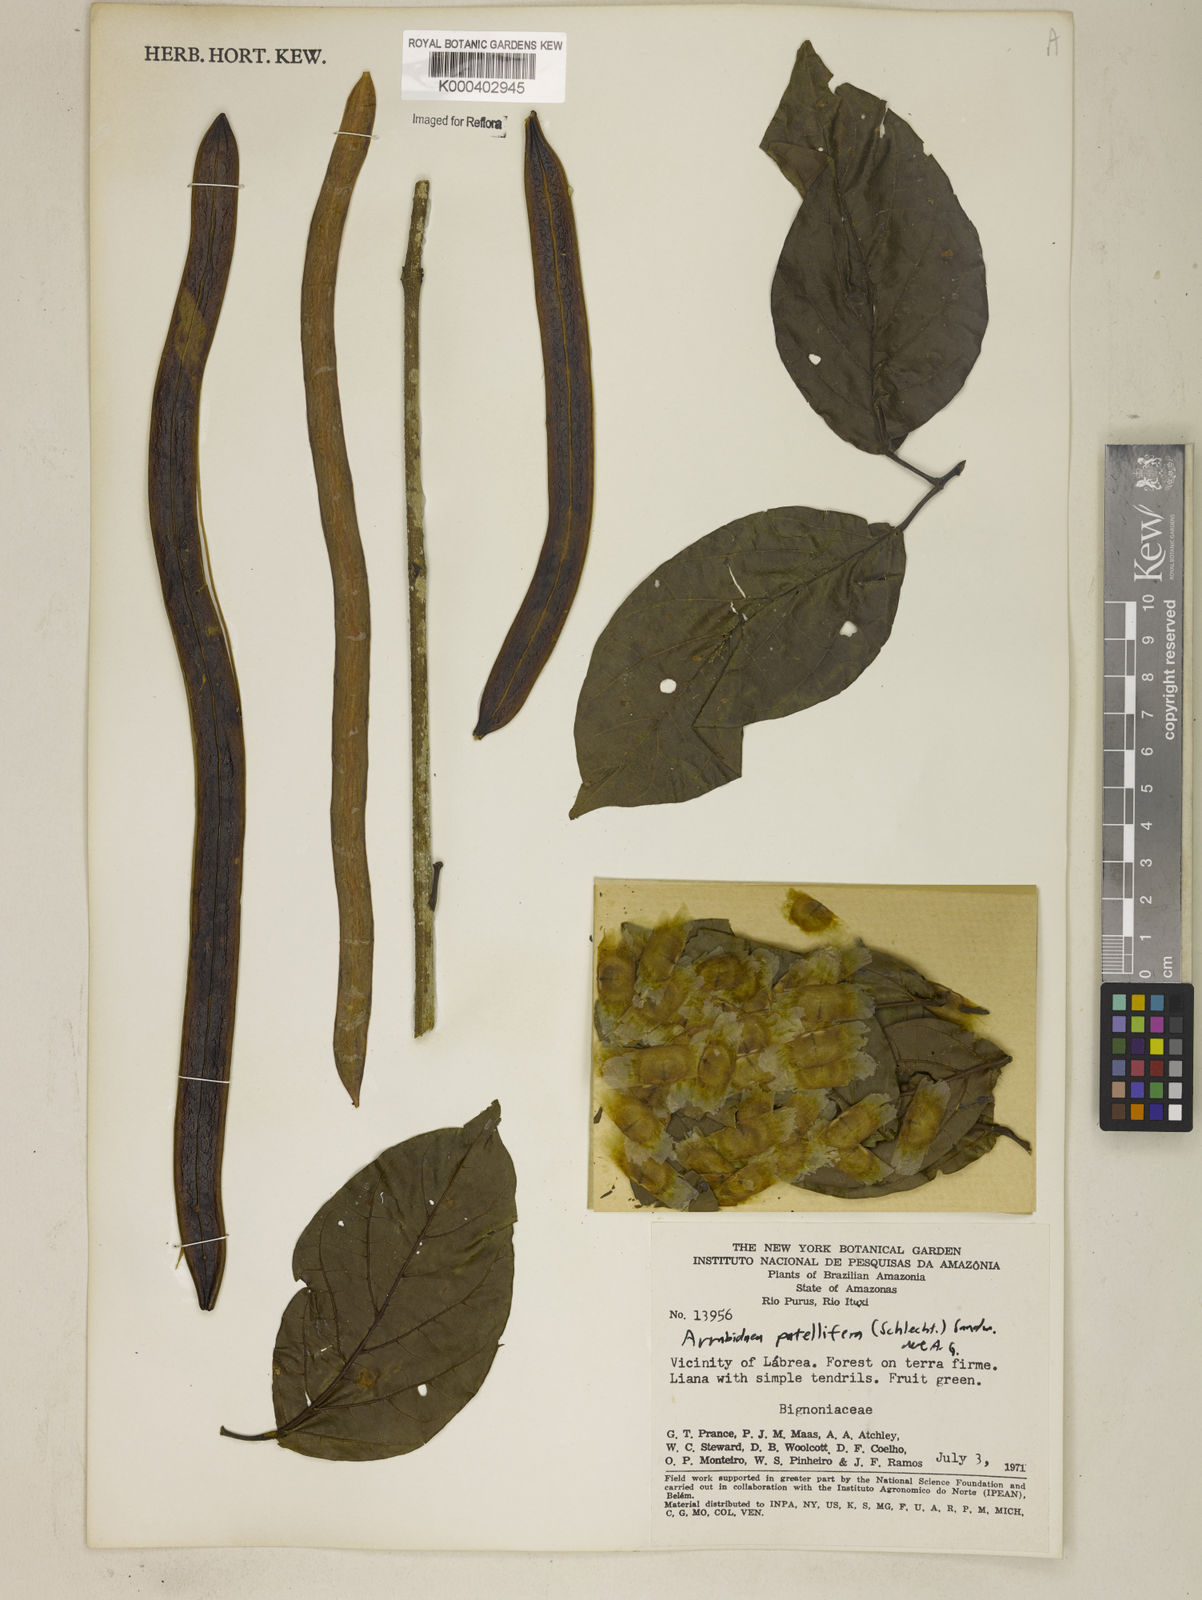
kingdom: Plantae
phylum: Tracheophyta
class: Magnoliopsida
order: Lamiales
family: Bignoniaceae
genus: Fridericia
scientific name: Fridericia patellifera
